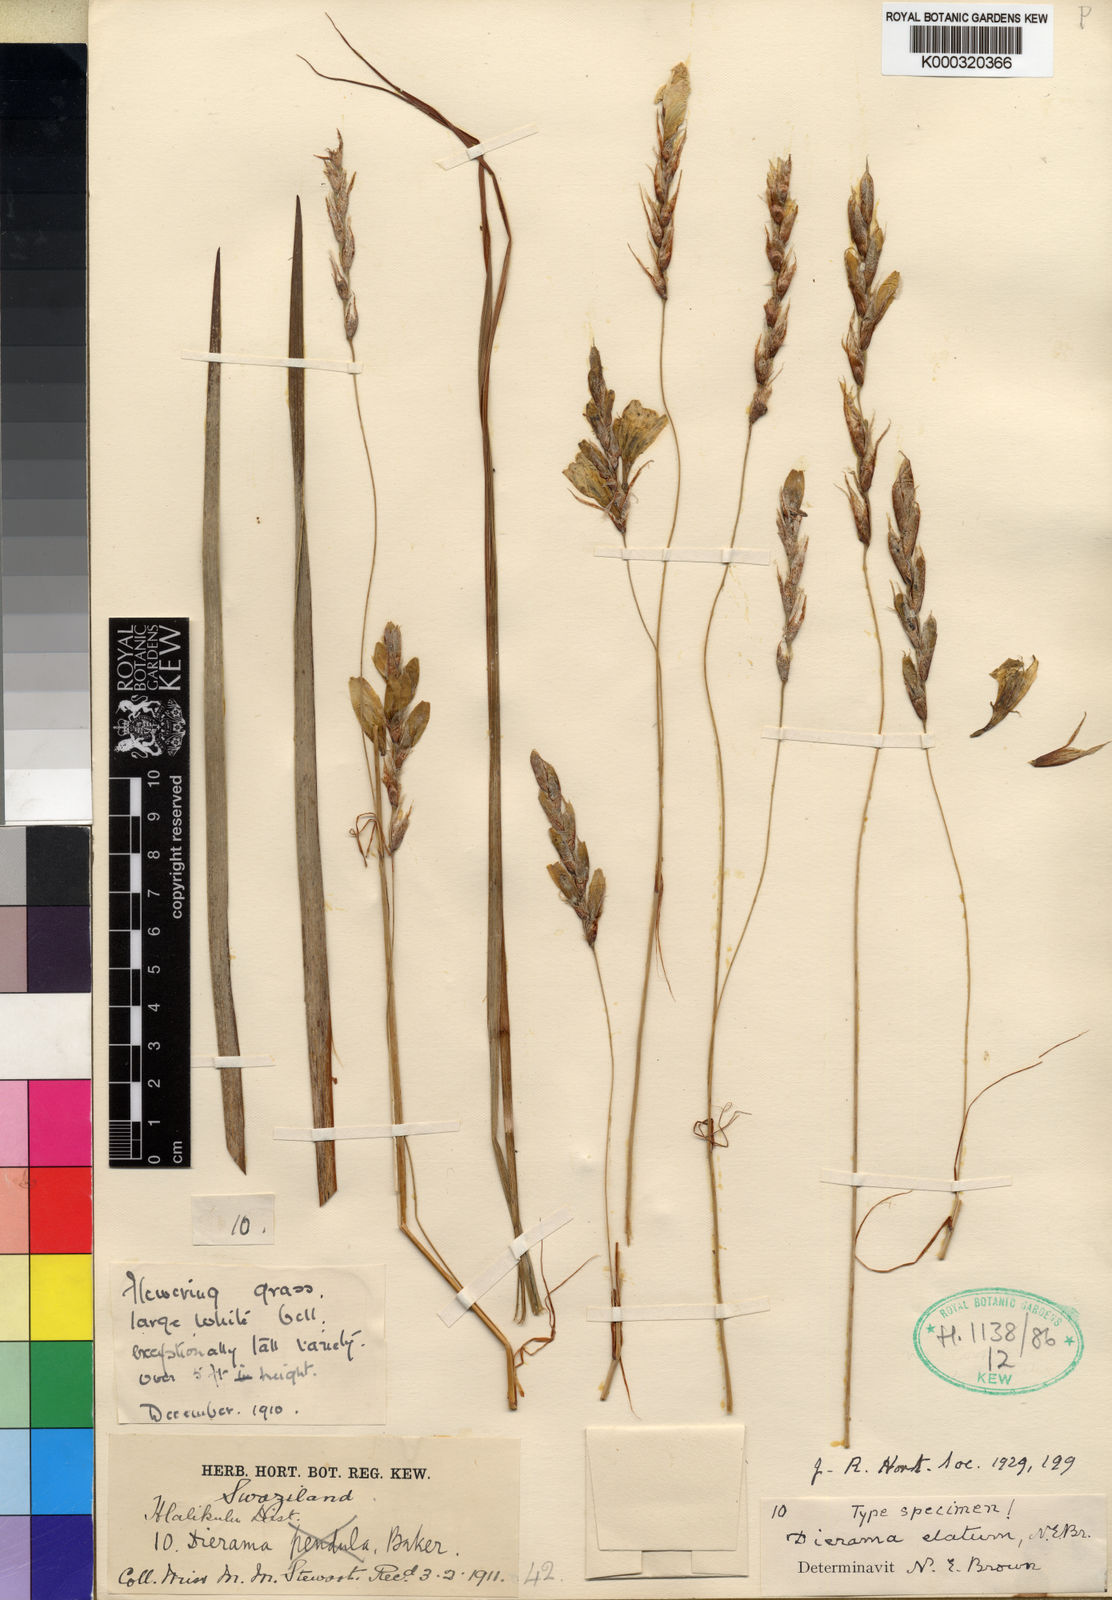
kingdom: Plantae
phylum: Tracheophyta
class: Liliopsida
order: Asparagales
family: Iridaceae
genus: Dierama
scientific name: Dierama elatum
